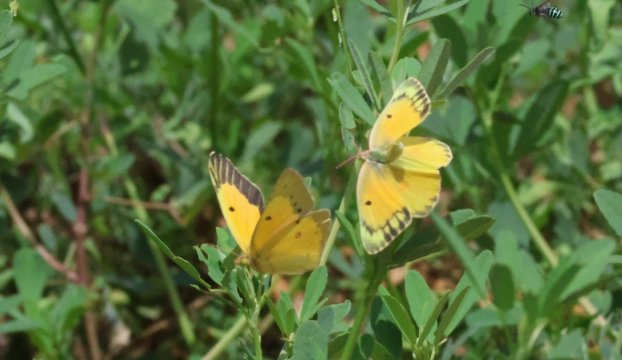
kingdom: Animalia
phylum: Arthropoda
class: Insecta
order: Lepidoptera
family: Pieridae
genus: Colias
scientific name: Colias eurytheme
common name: Orange Sulphur
